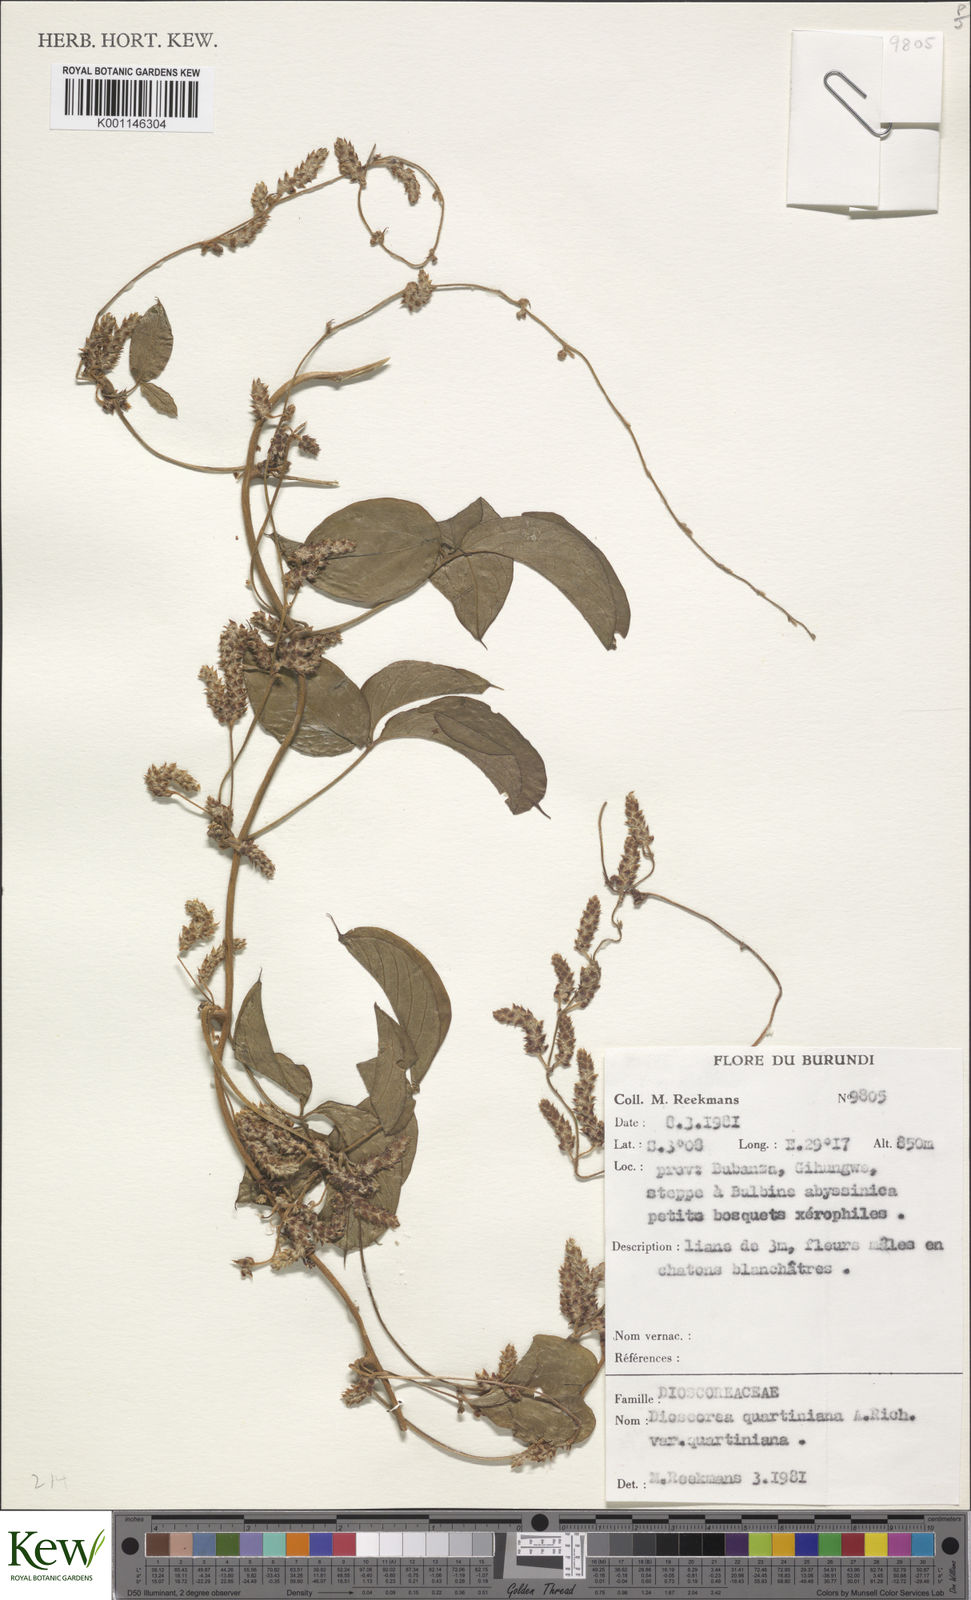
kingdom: Plantae
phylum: Tracheophyta
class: Liliopsida
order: Dioscoreales
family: Dioscoreaceae
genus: Dioscorea
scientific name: Dioscorea quartiniana
